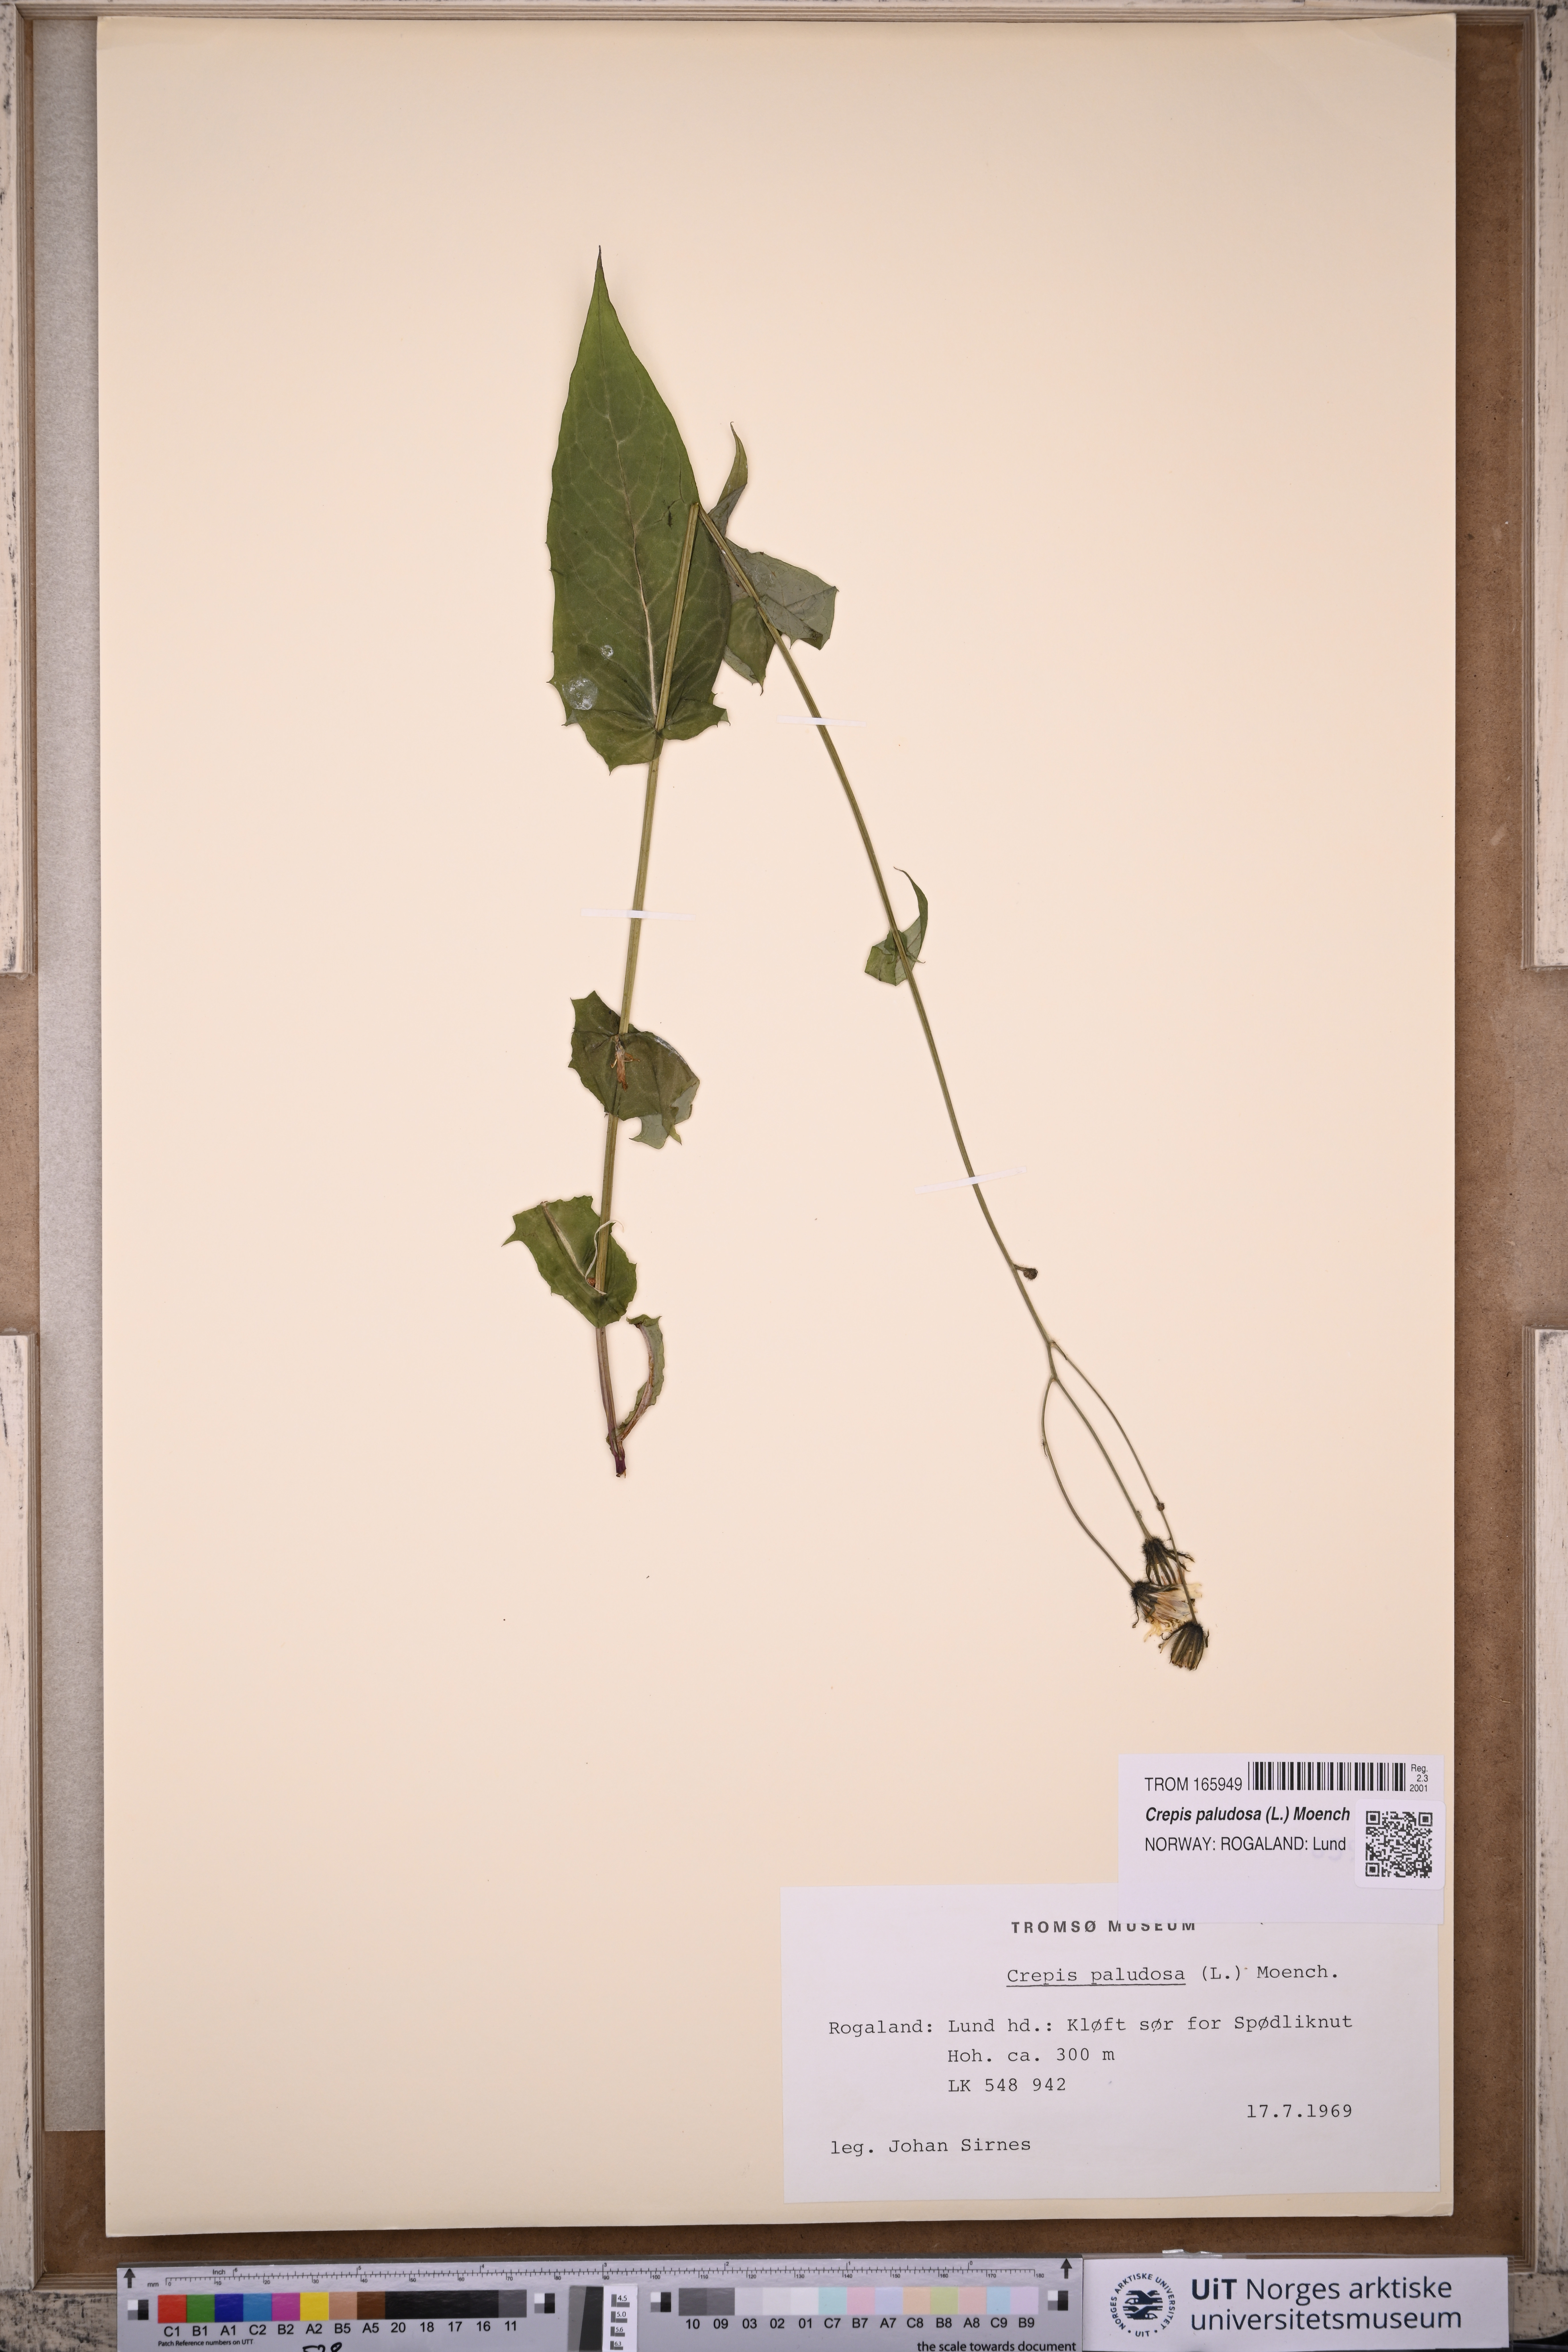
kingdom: Plantae
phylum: Tracheophyta
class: Magnoliopsida
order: Asterales
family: Asteraceae
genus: Crepis
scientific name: Crepis paludosa
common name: Marsh hawk's-beard
